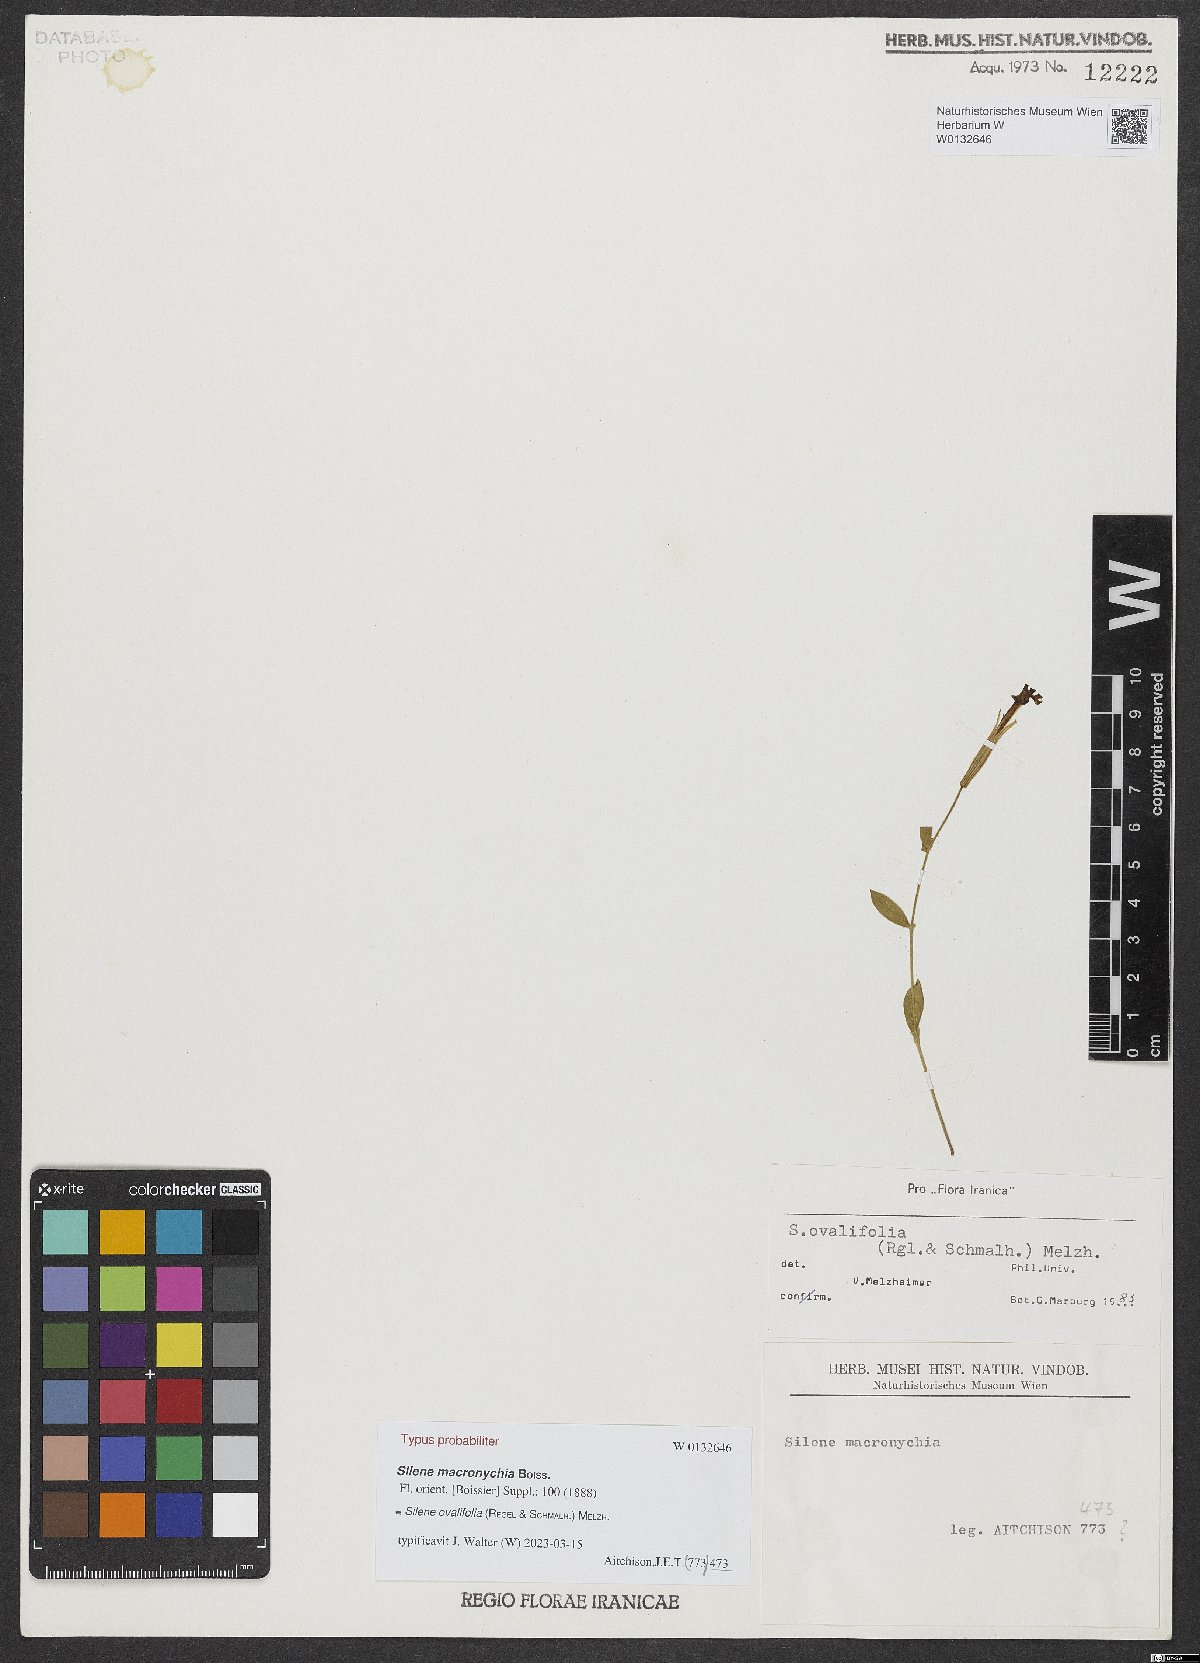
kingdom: Plantae
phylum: Tracheophyta
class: Magnoliopsida
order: Caryophyllales
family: Caryophyllaceae
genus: Silene
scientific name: Silene ovalifolia
